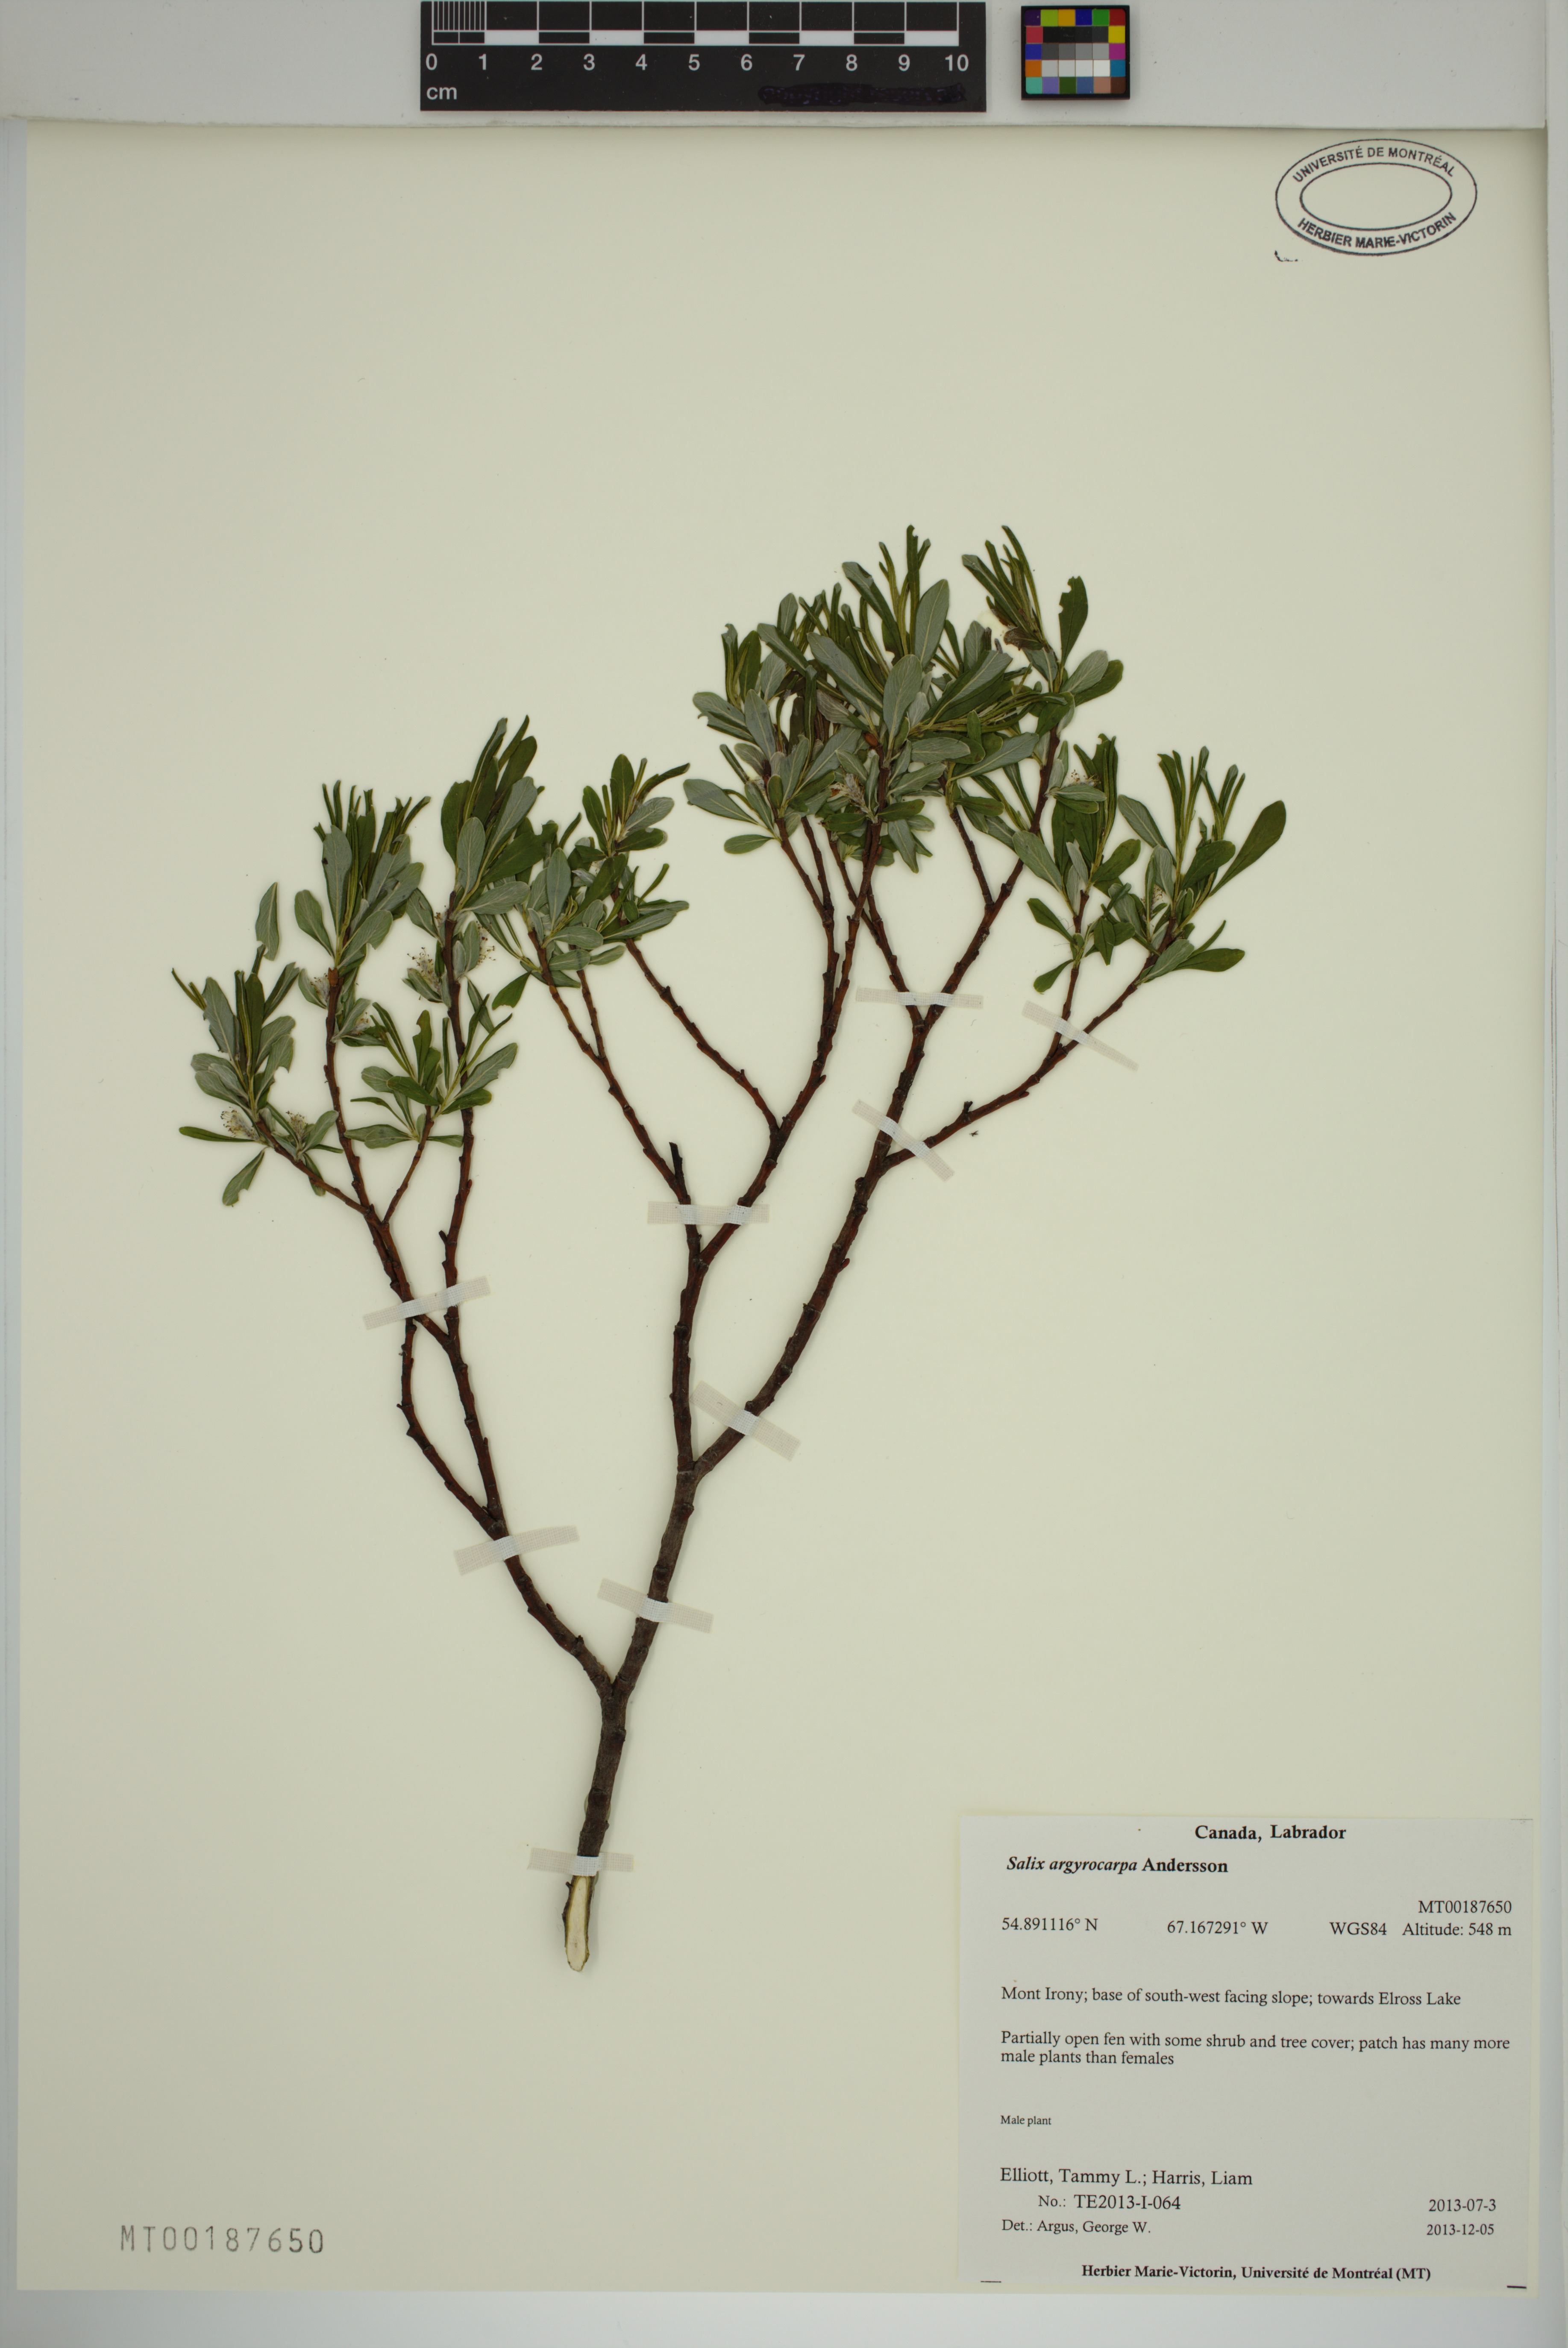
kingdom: Plantae
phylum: Tracheophyta
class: Magnoliopsida
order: Malpighiales
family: Salicaceae
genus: Salix
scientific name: Salix argyrocarpa
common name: Labrador willow
